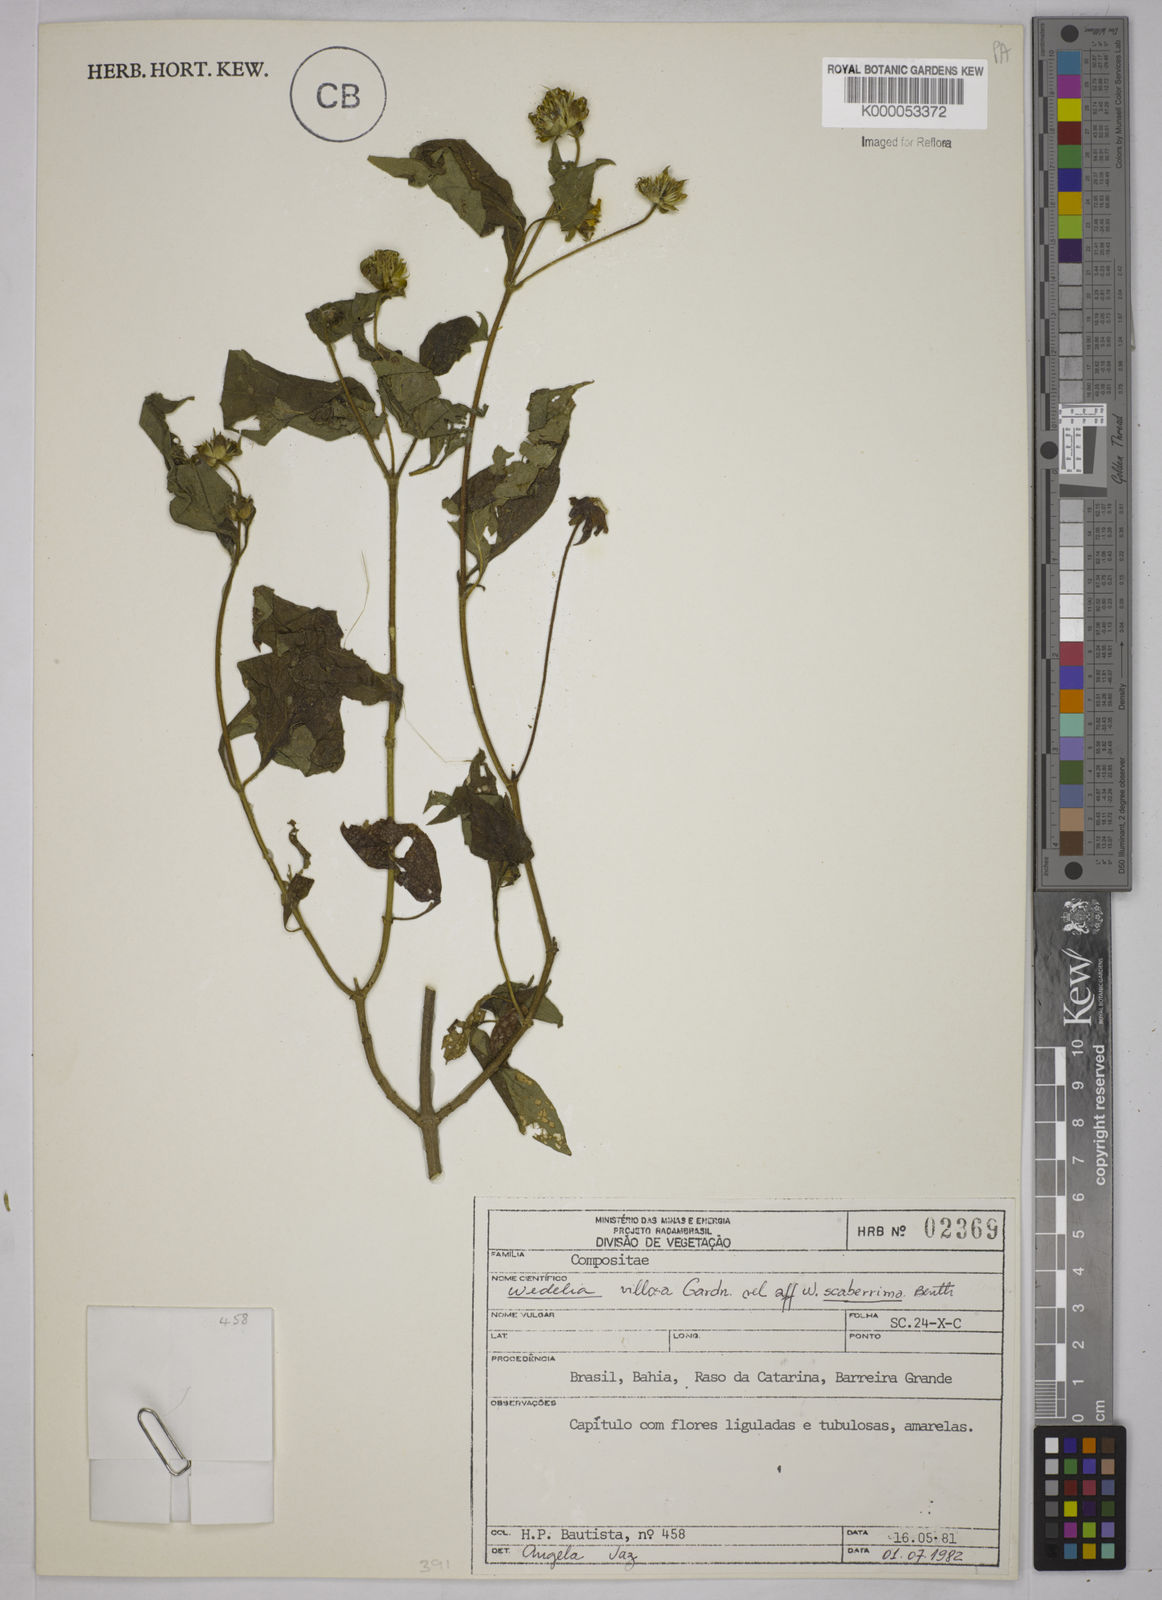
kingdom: Plantae
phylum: Tracheophyta
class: Magnoliopsida
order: Asterales
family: Asteraceae
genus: Wedelia
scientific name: Wedelia villosa
